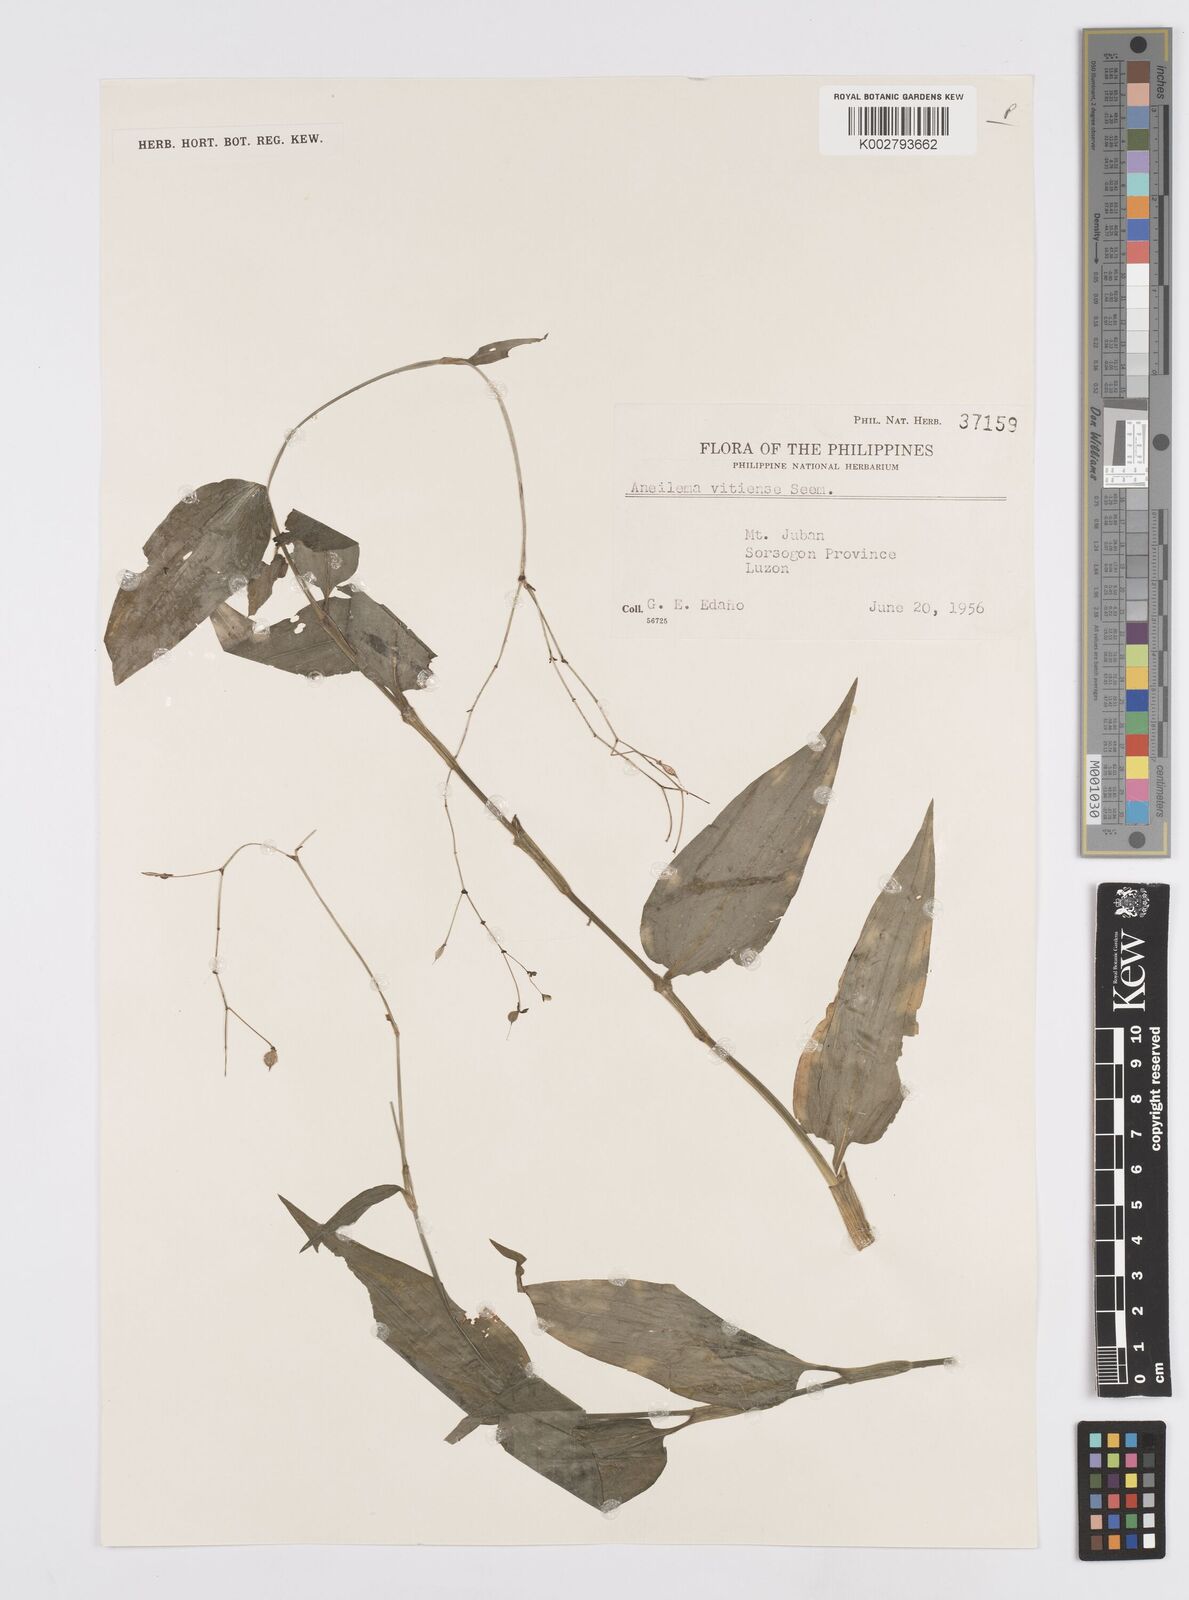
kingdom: Plantae
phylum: Tracheophyta
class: Liliopsida
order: Commelinales
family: Commelinaceae
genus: Murdannia
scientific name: Murdannia
